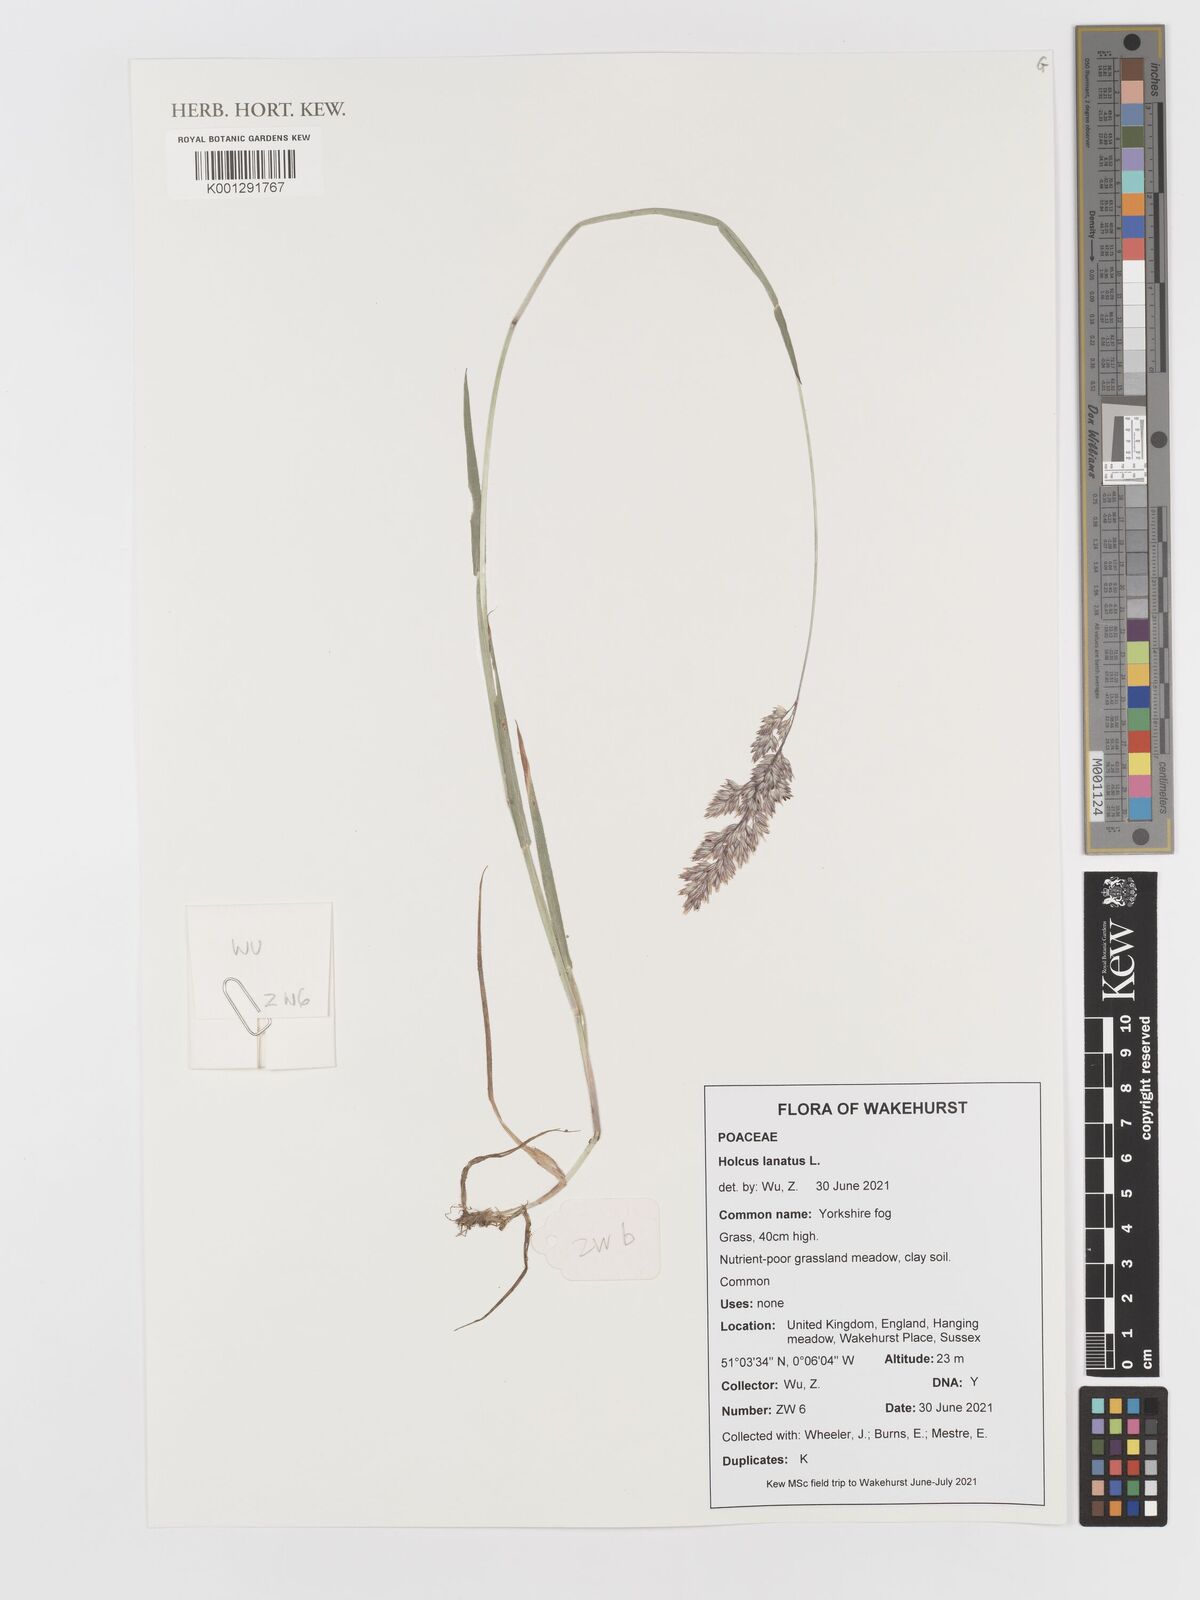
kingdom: Plantae
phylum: Tracheophyta
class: Liliopsida
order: Poales
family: Poaceae
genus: Holcus
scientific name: Holcus lanatus
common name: Yorkshire-fog
